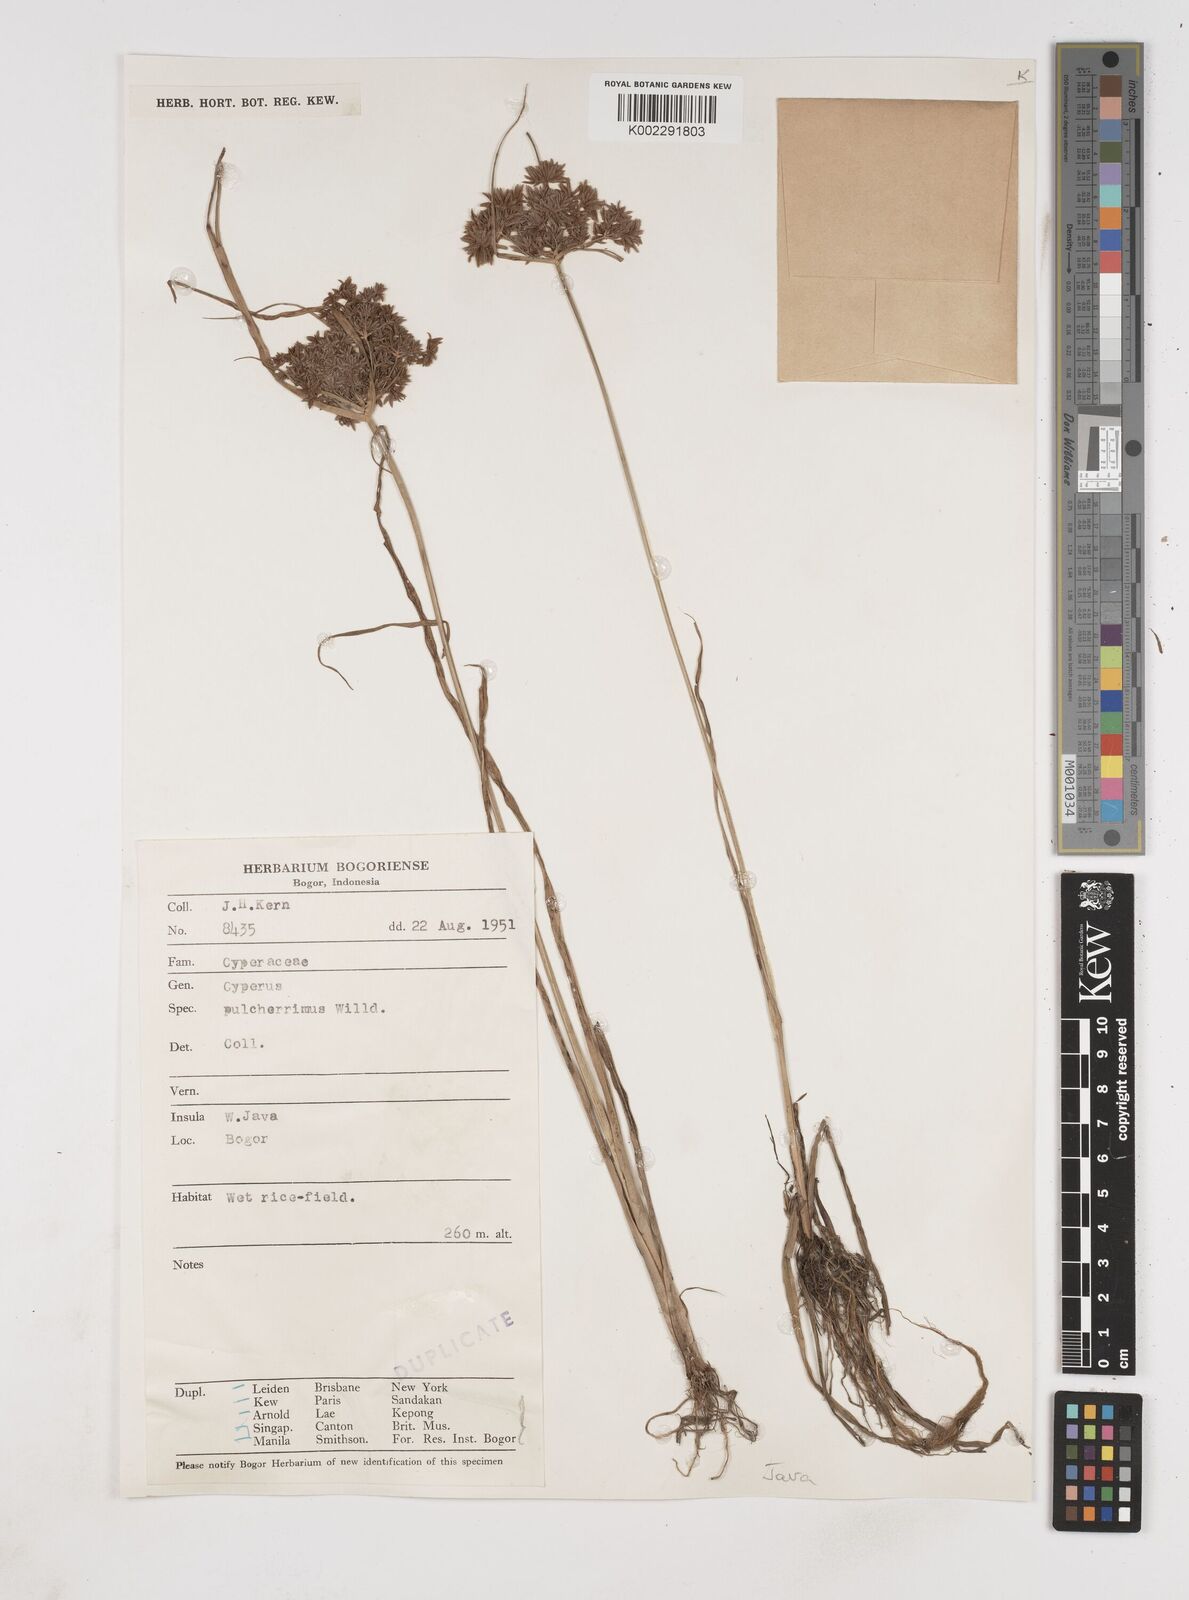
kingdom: Plantae
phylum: Tracheophyta
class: Liliopsida
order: Poales
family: Cyperaceae
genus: Cyperus
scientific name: Cyperus pulcherrimus
